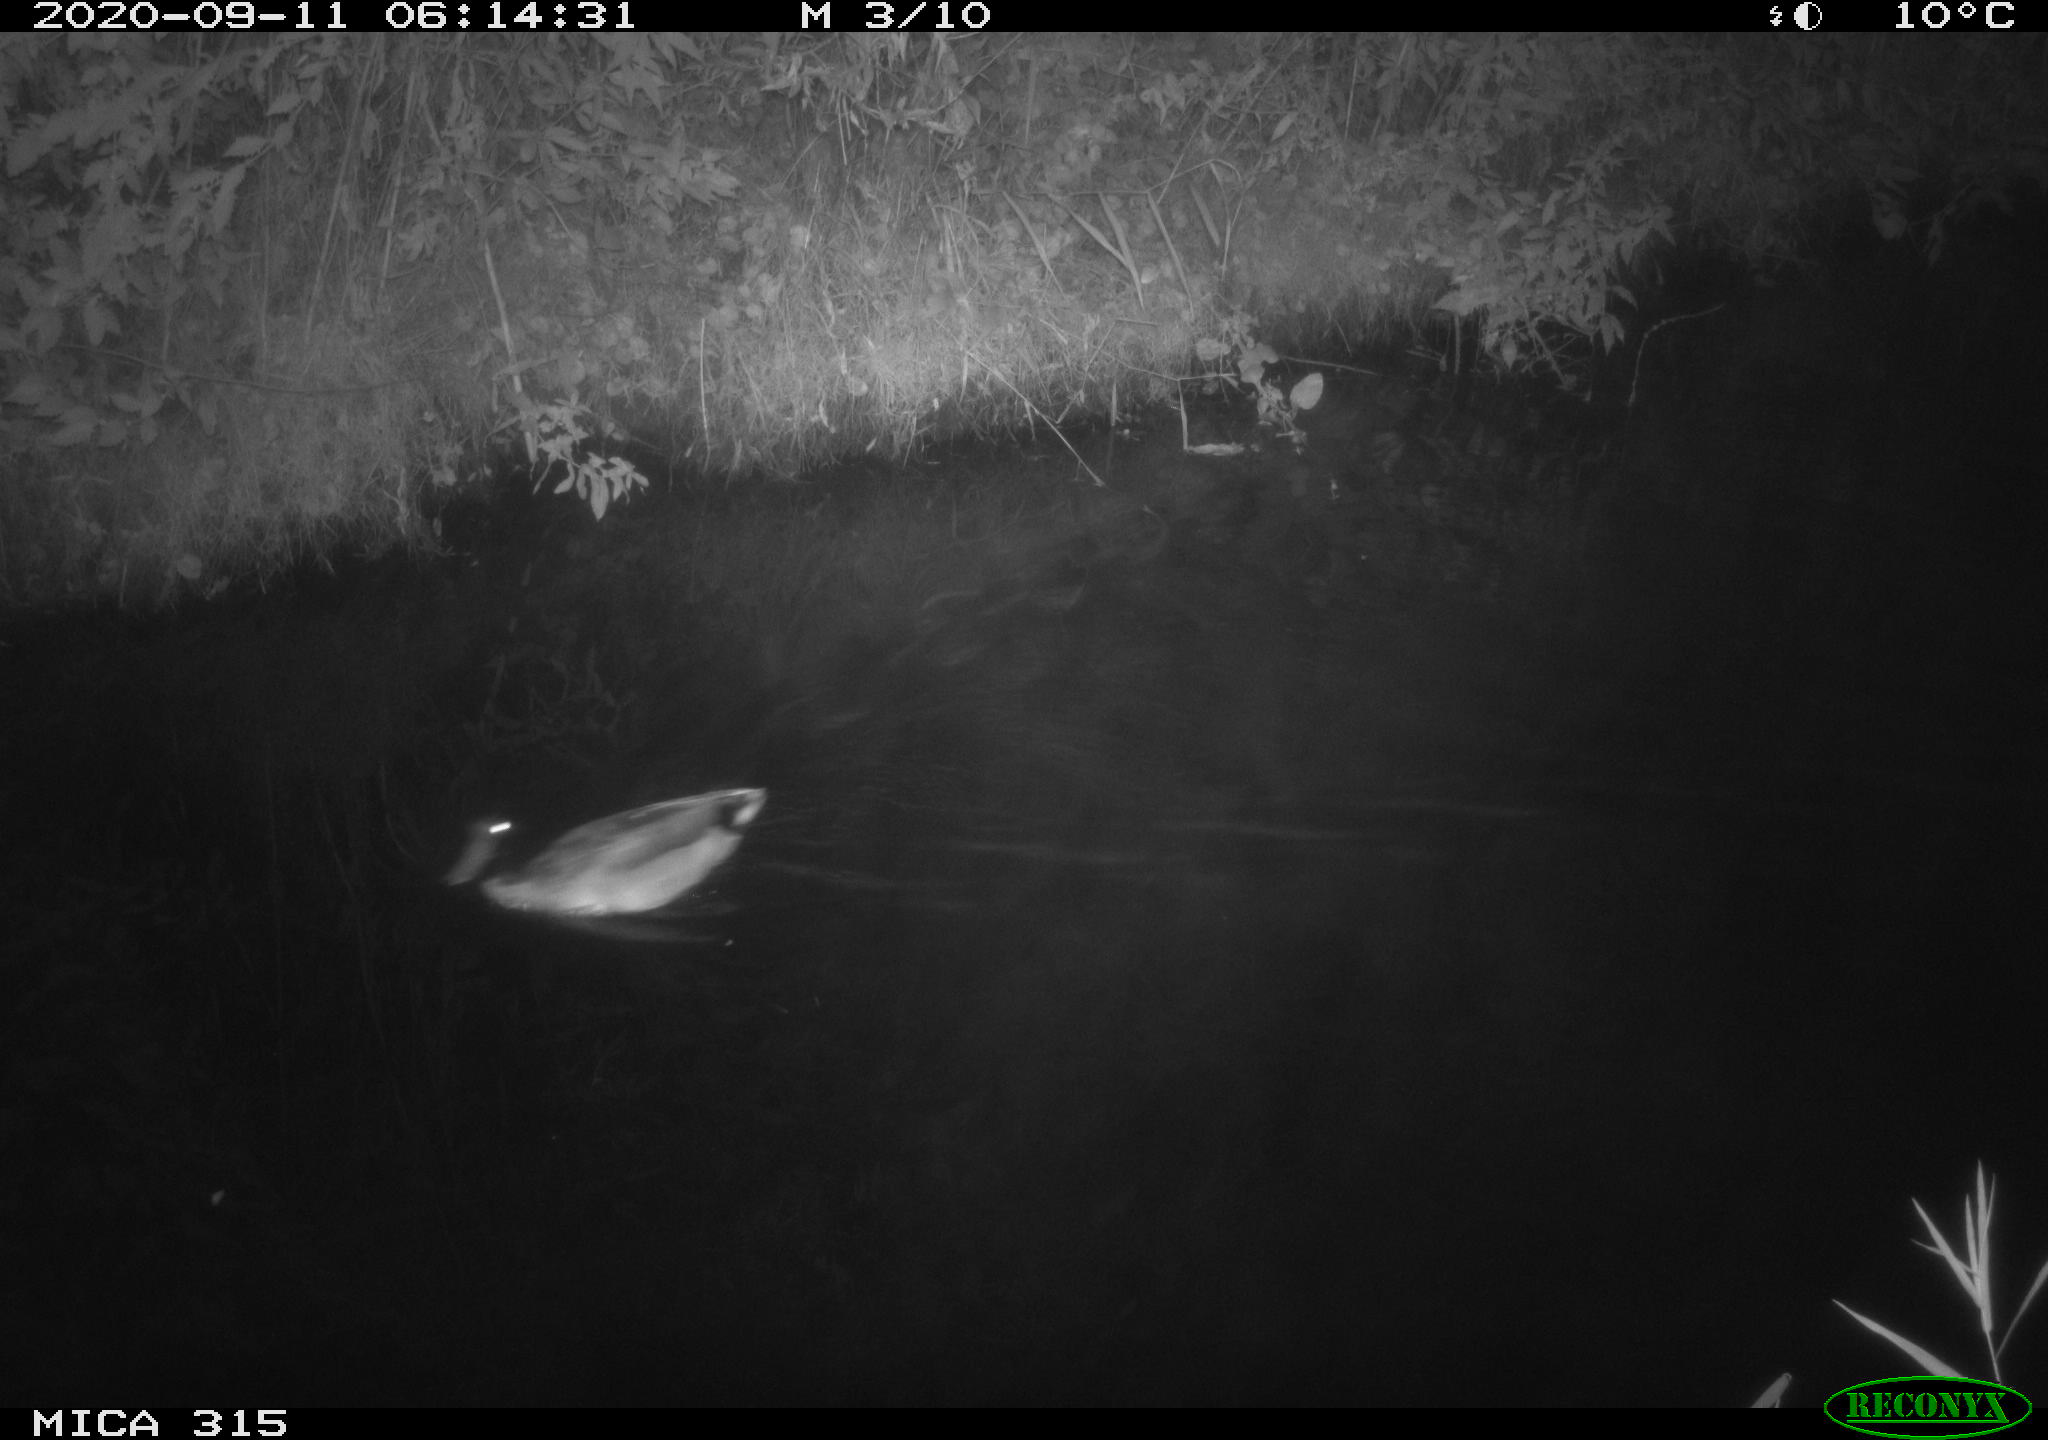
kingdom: Animalia
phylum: Chordata
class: Aves
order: Anseriformes
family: Anatidae
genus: Anas
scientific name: Anas platyrhynchos
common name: Mallard
